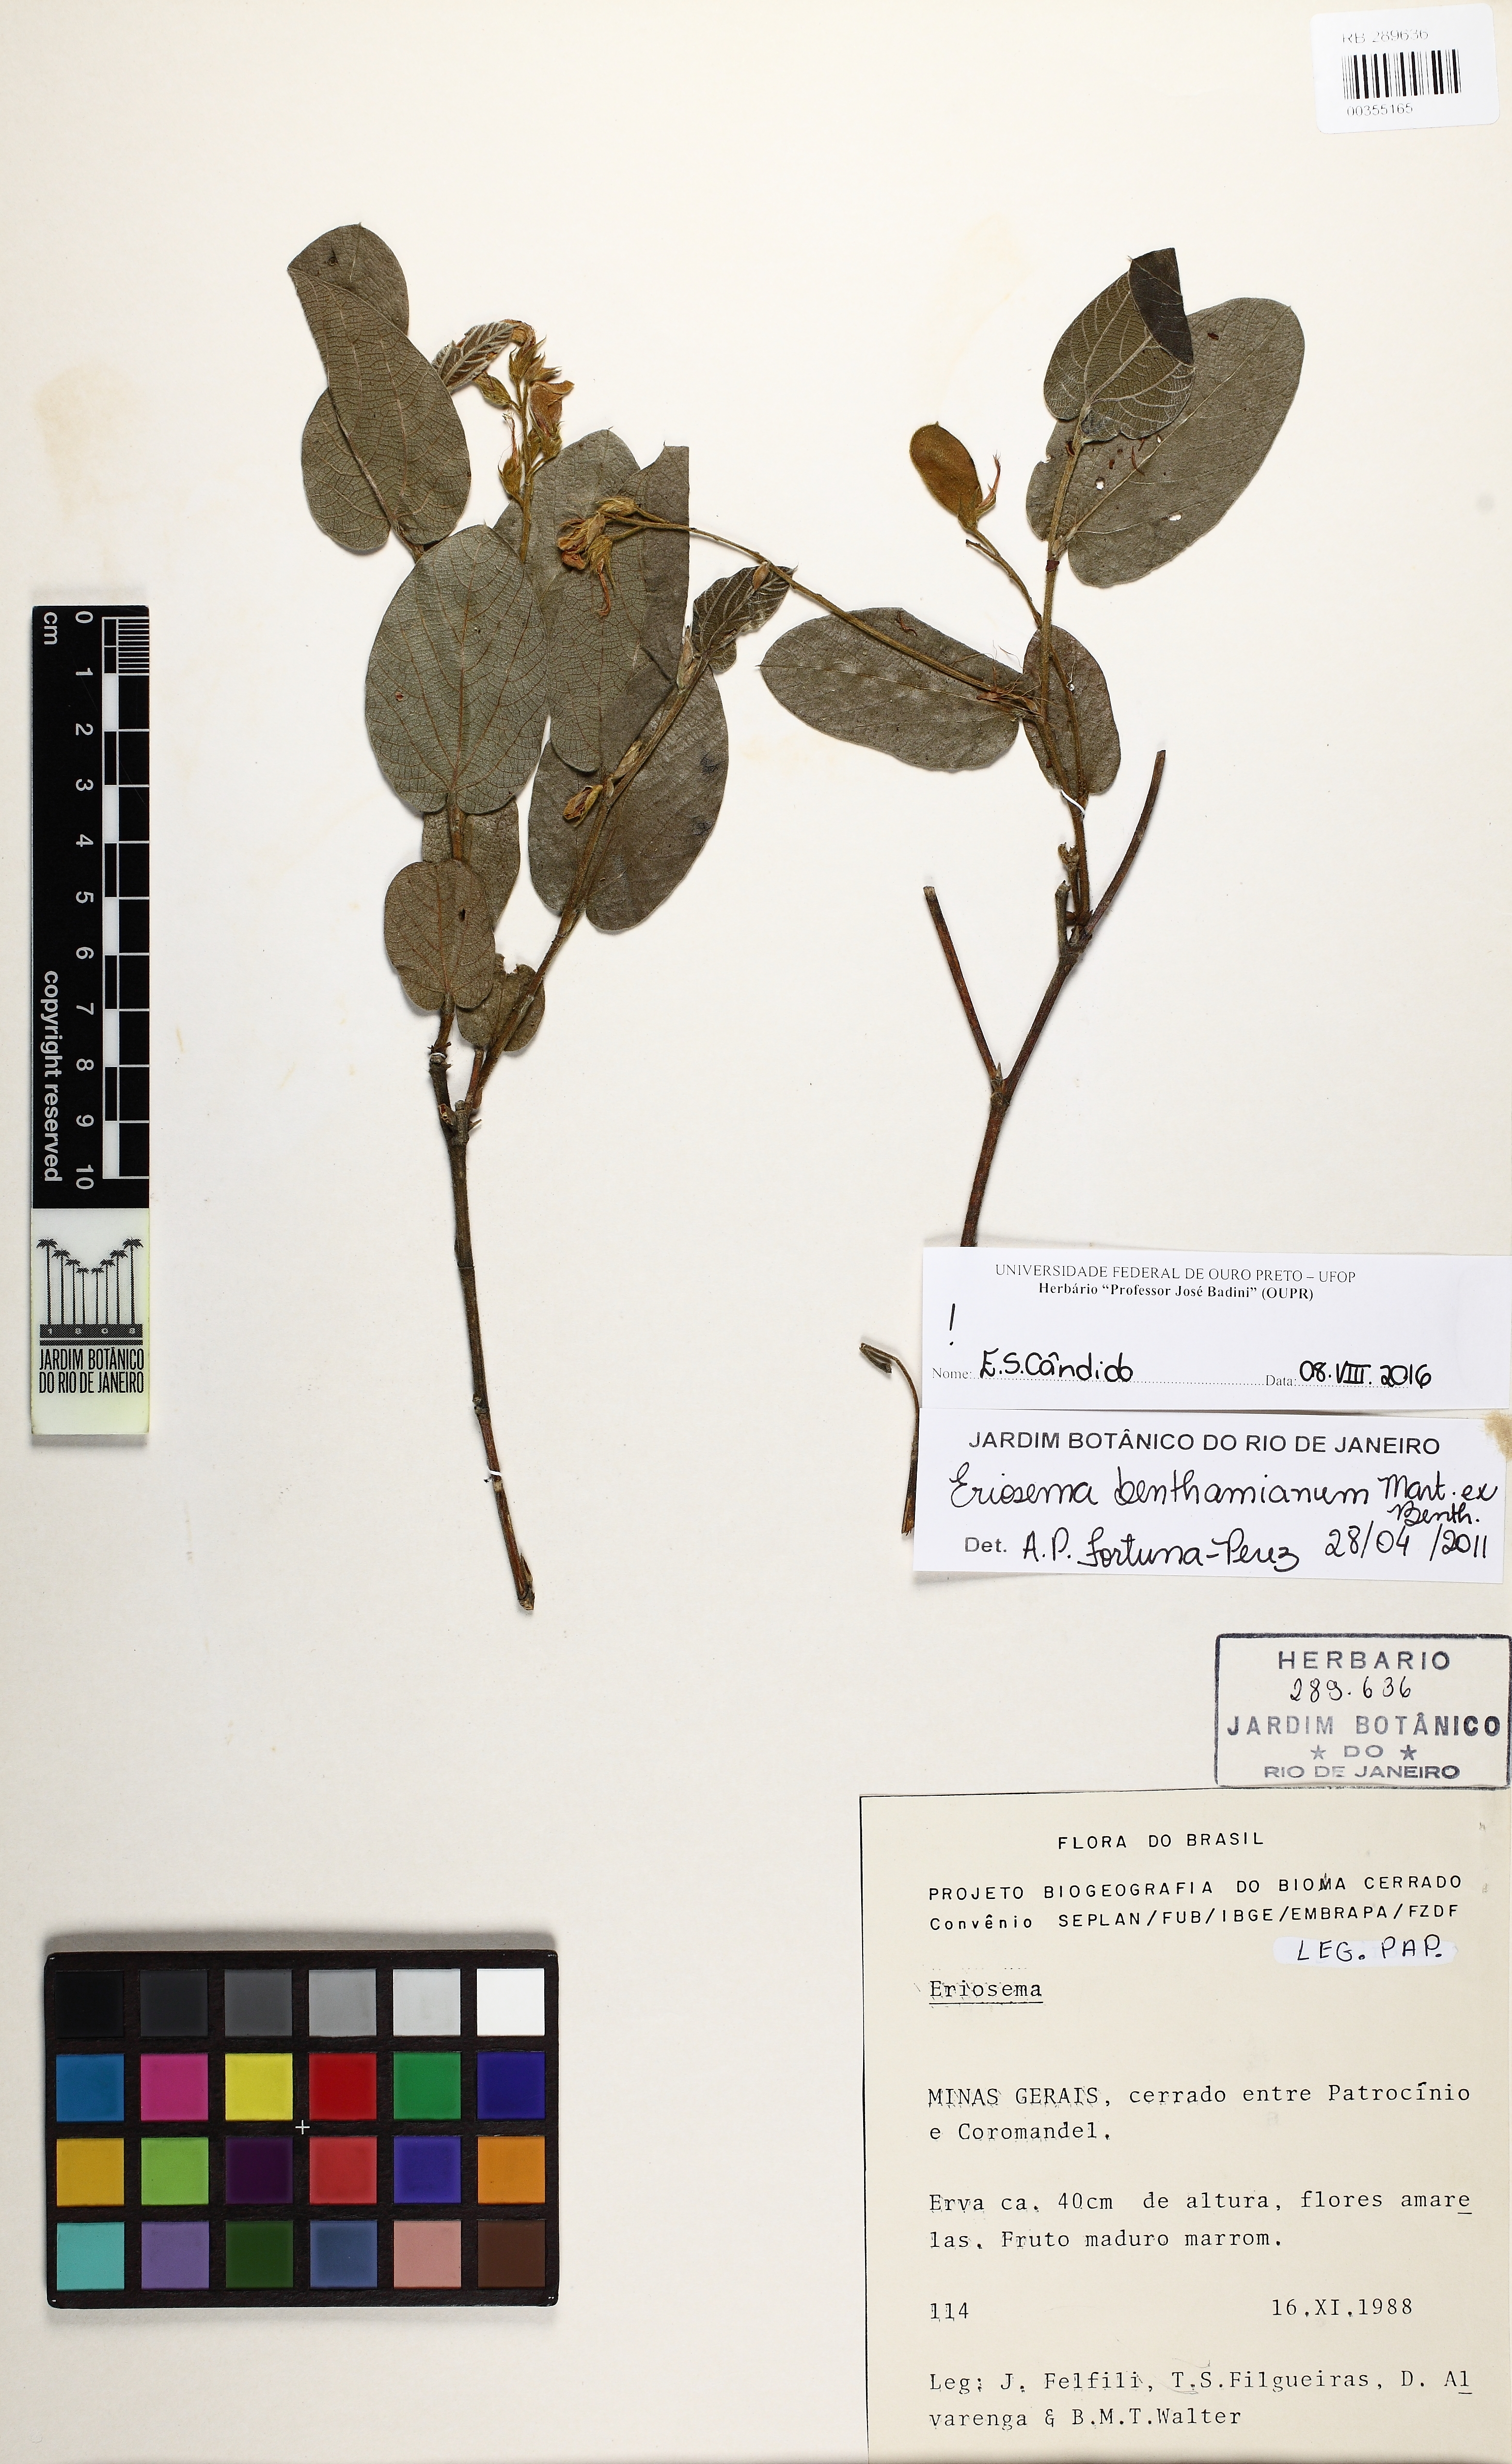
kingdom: Plantae
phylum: Tracheophyta
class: Magnoliopsida
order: Fabales
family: Fabaceae
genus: Eriosema
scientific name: Eriosema benthamianum
